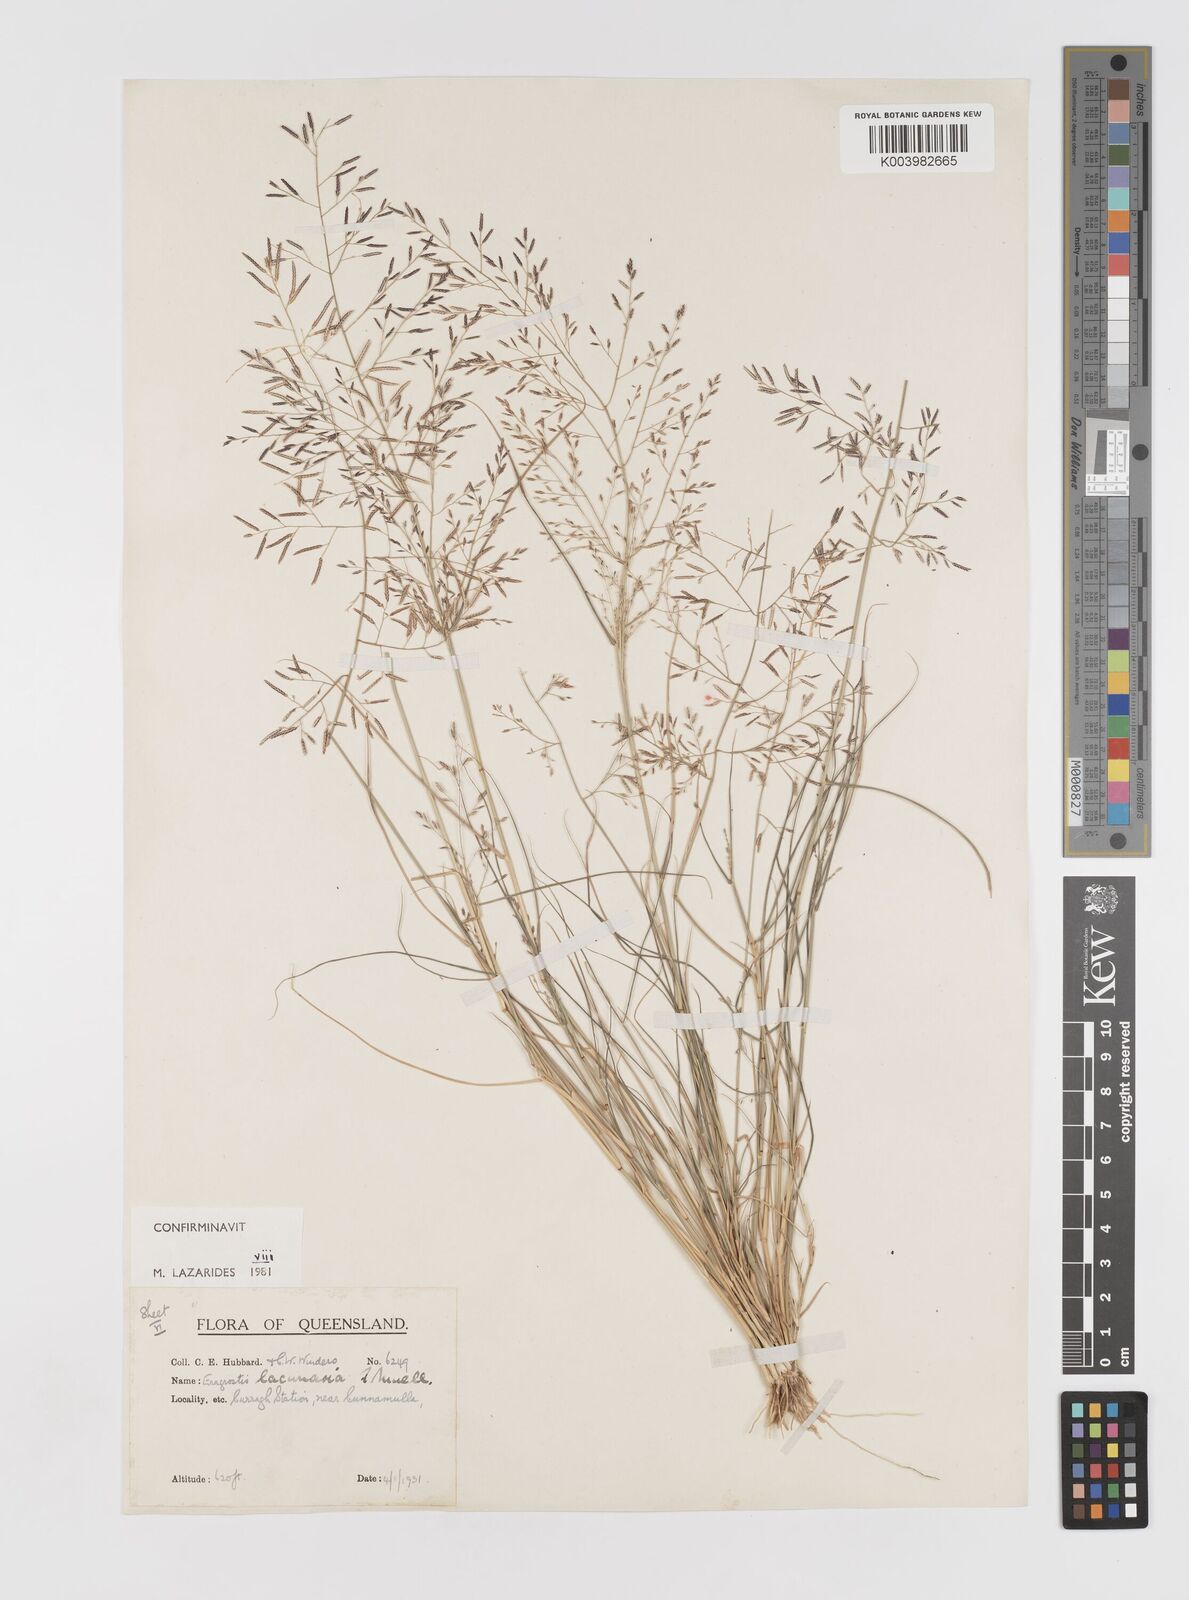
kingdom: Plantae
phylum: Tracheophyta
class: Liliopsida
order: Poales
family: Poaceae
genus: Eragrostis
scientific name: Eragrostis lacunaria
